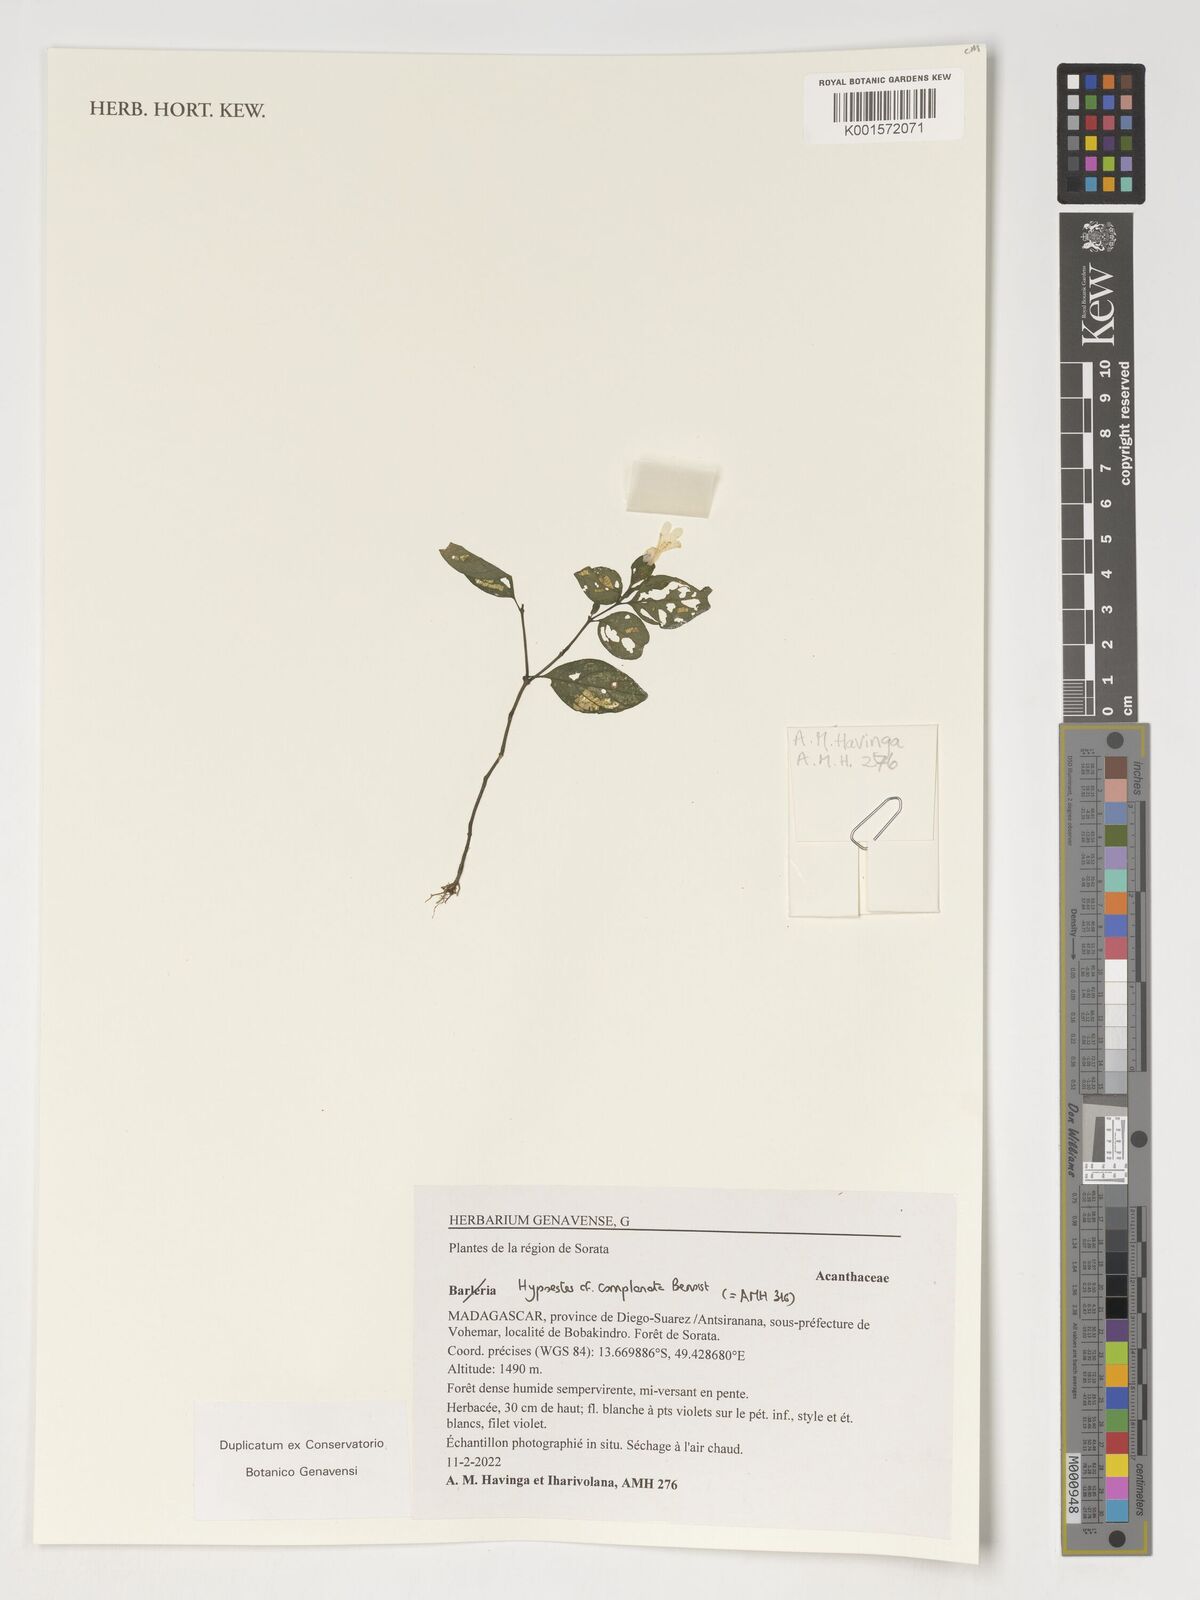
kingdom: Plantae
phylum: Tracheophyta
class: Magnoliopsida
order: Lamiales
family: Acanthaceae
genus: Barleria
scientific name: Barleria
